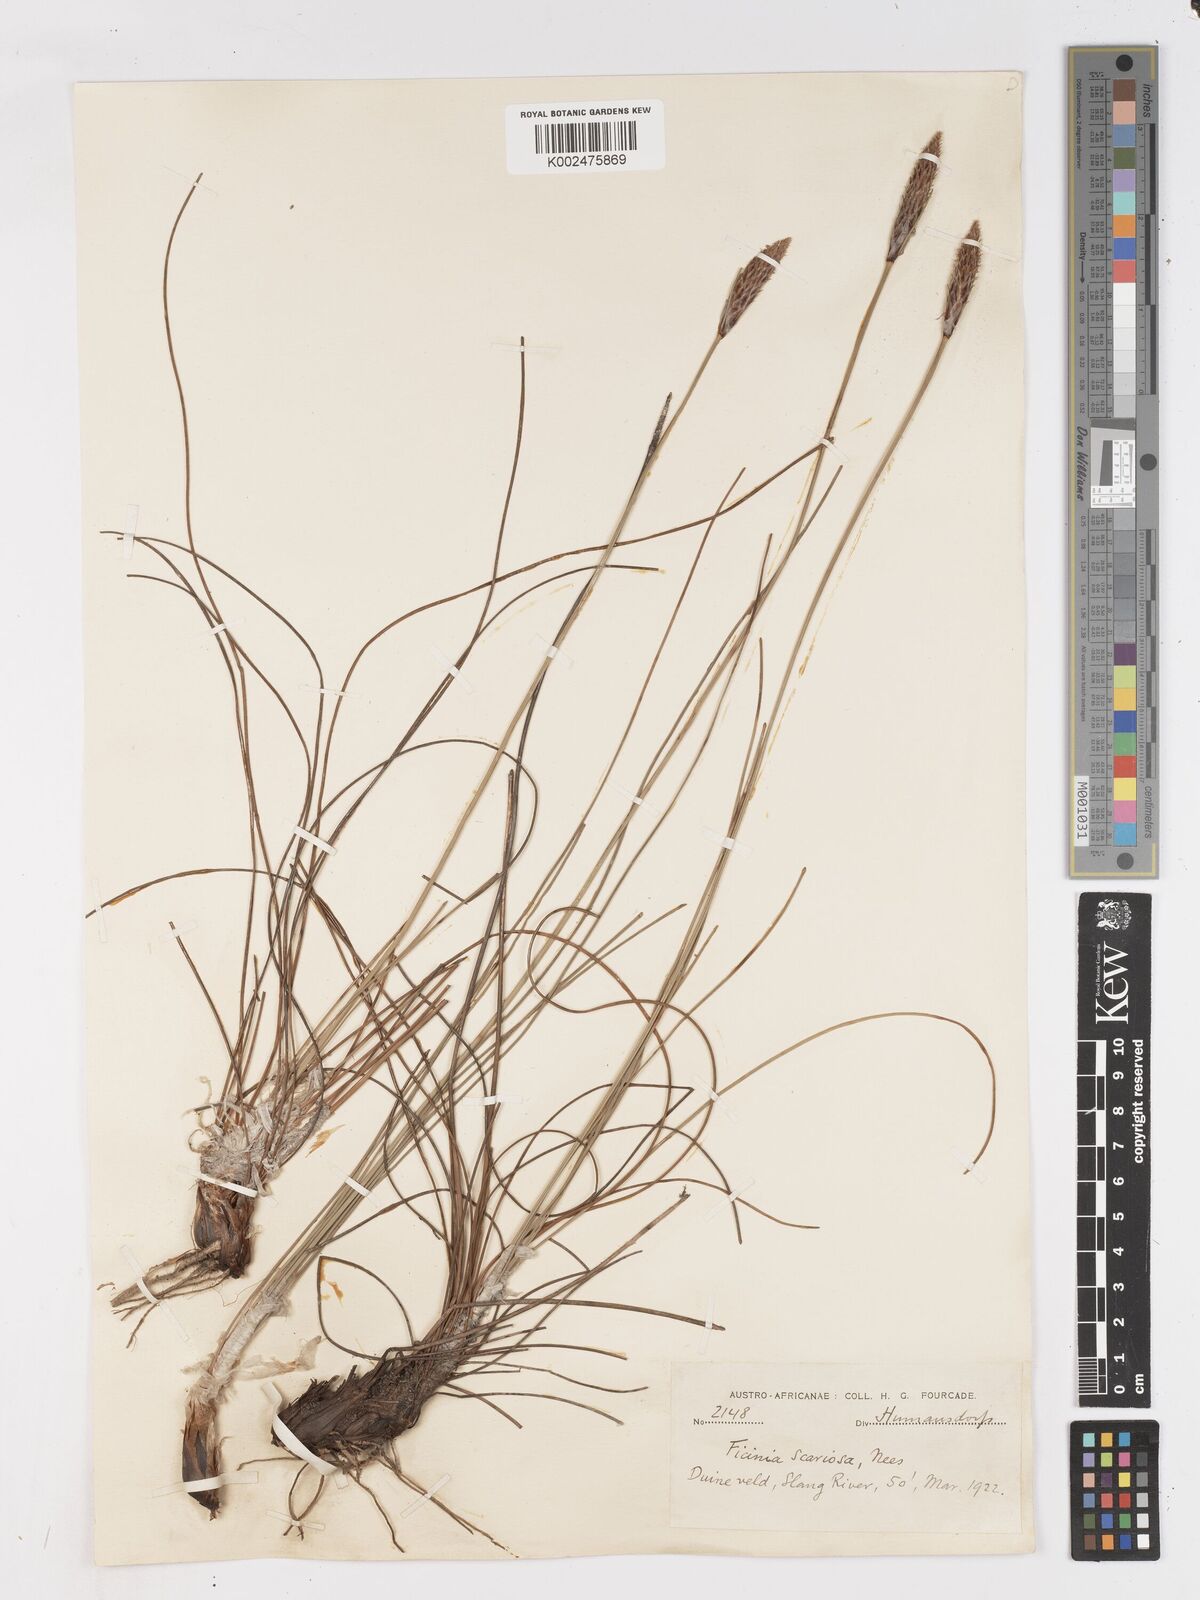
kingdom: Plantae
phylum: Tracheophyta
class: Liliopsida
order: Poales
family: Cyperaceae
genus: Ficinia
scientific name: Ficinia deusta
